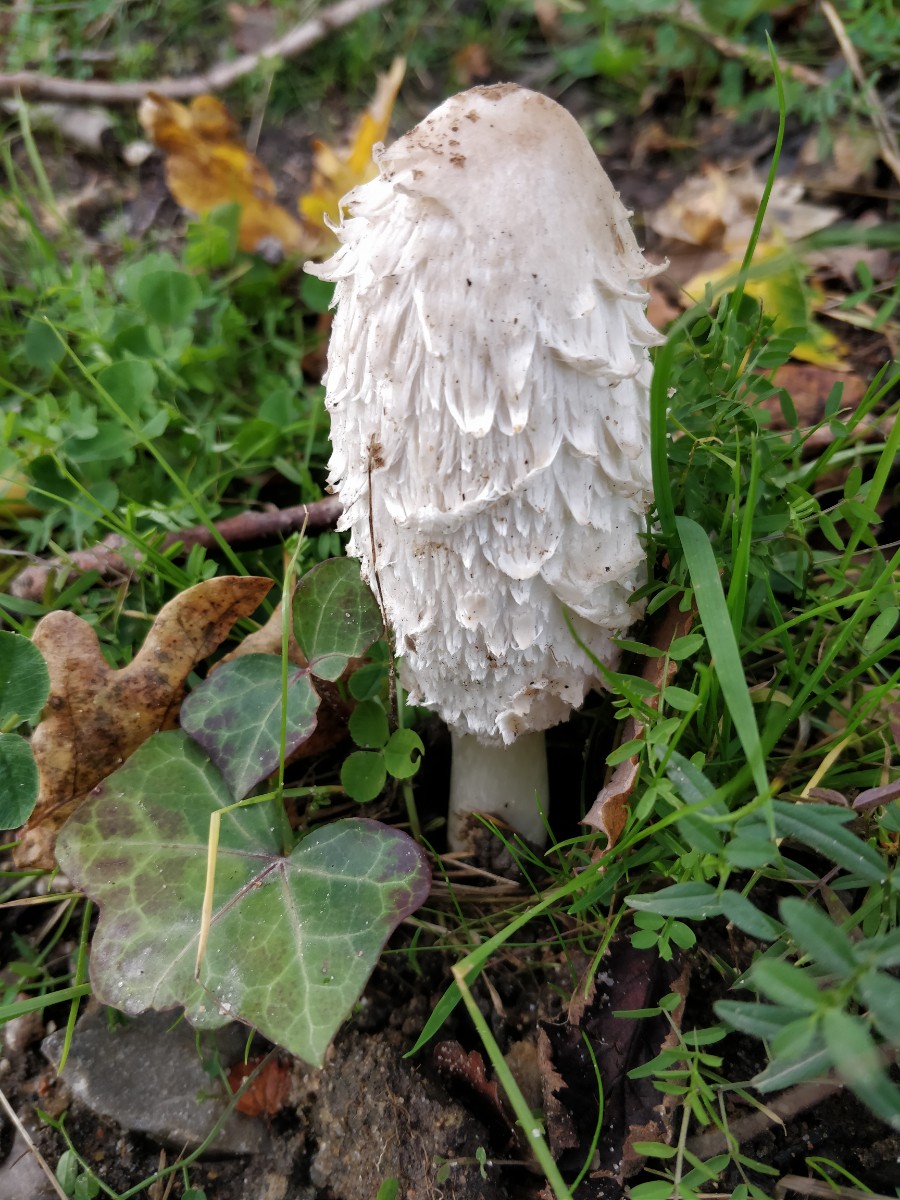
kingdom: Fungi
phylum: Basidiomycota
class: Agaricomycetes
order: Agaricales
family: Agaricaceae
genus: Coprinus
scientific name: Coprinus comatus
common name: stor parykhat
